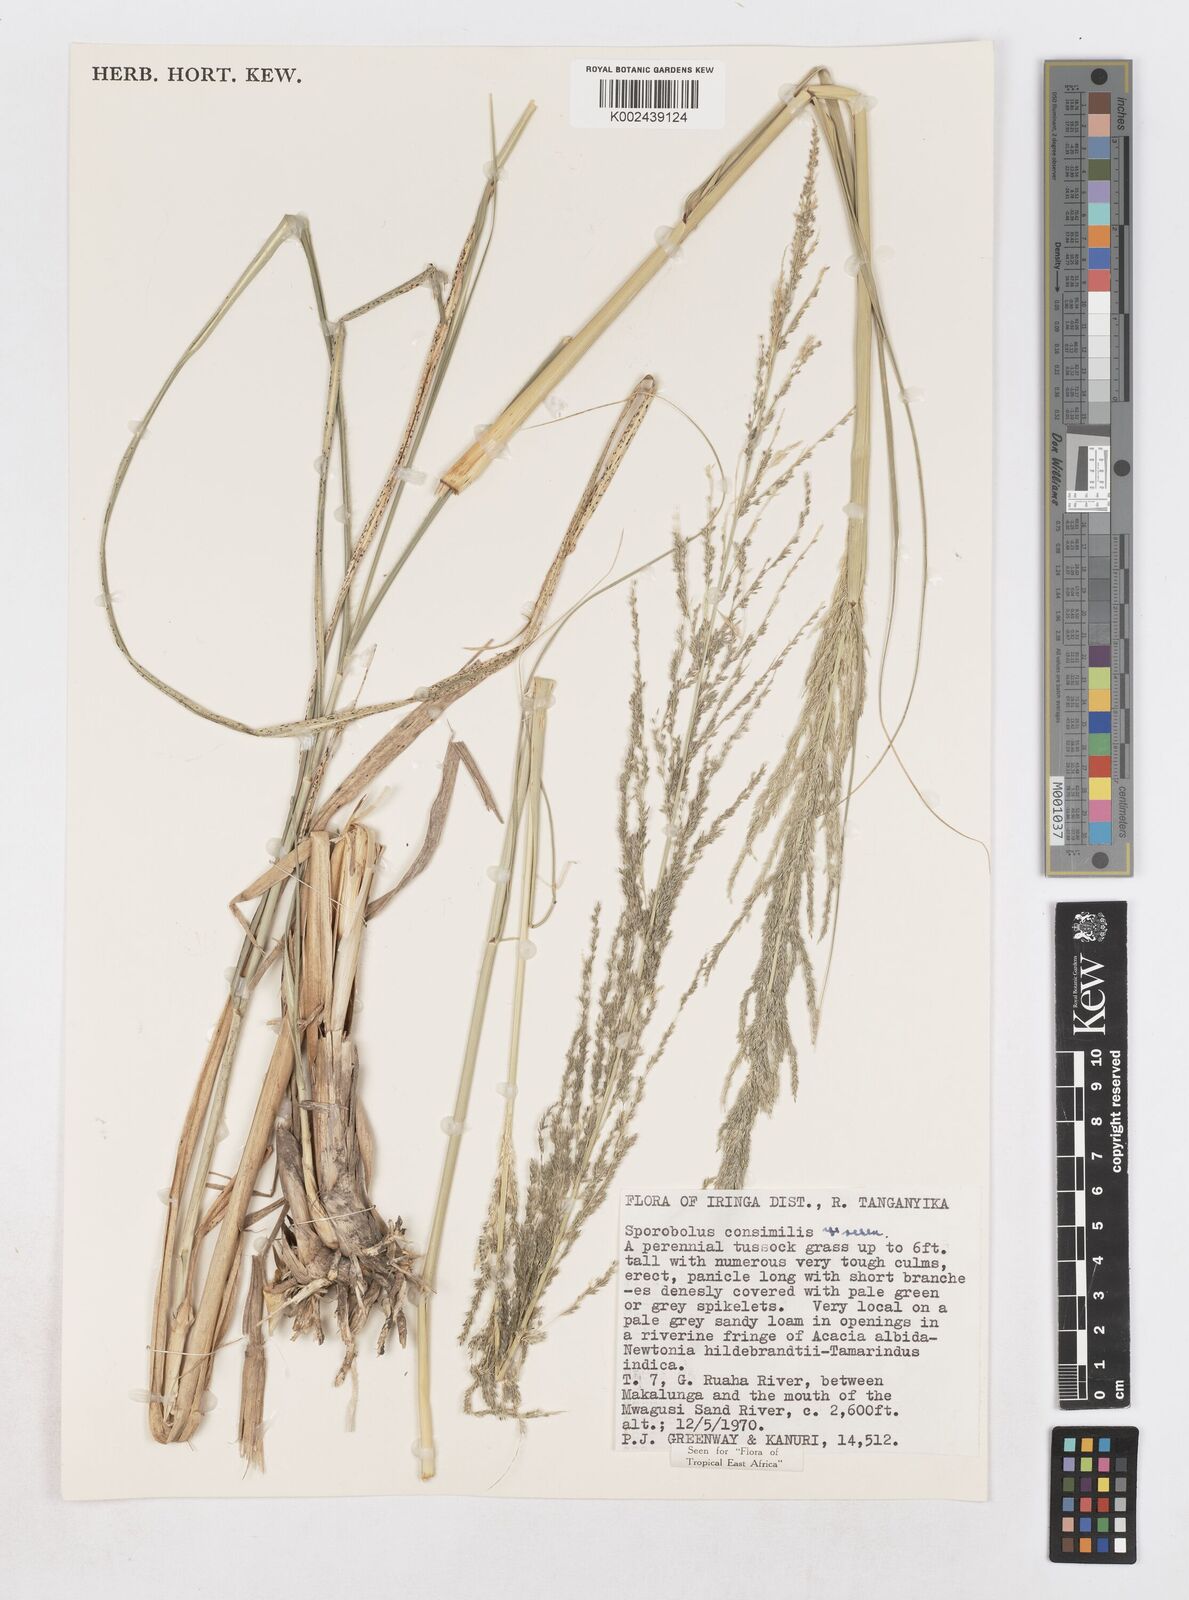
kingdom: Plantae
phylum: Tracheophyta
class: Liliopsida
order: Poales
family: Poaceae
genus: Sporobolus
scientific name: Sporobolus consimilis
